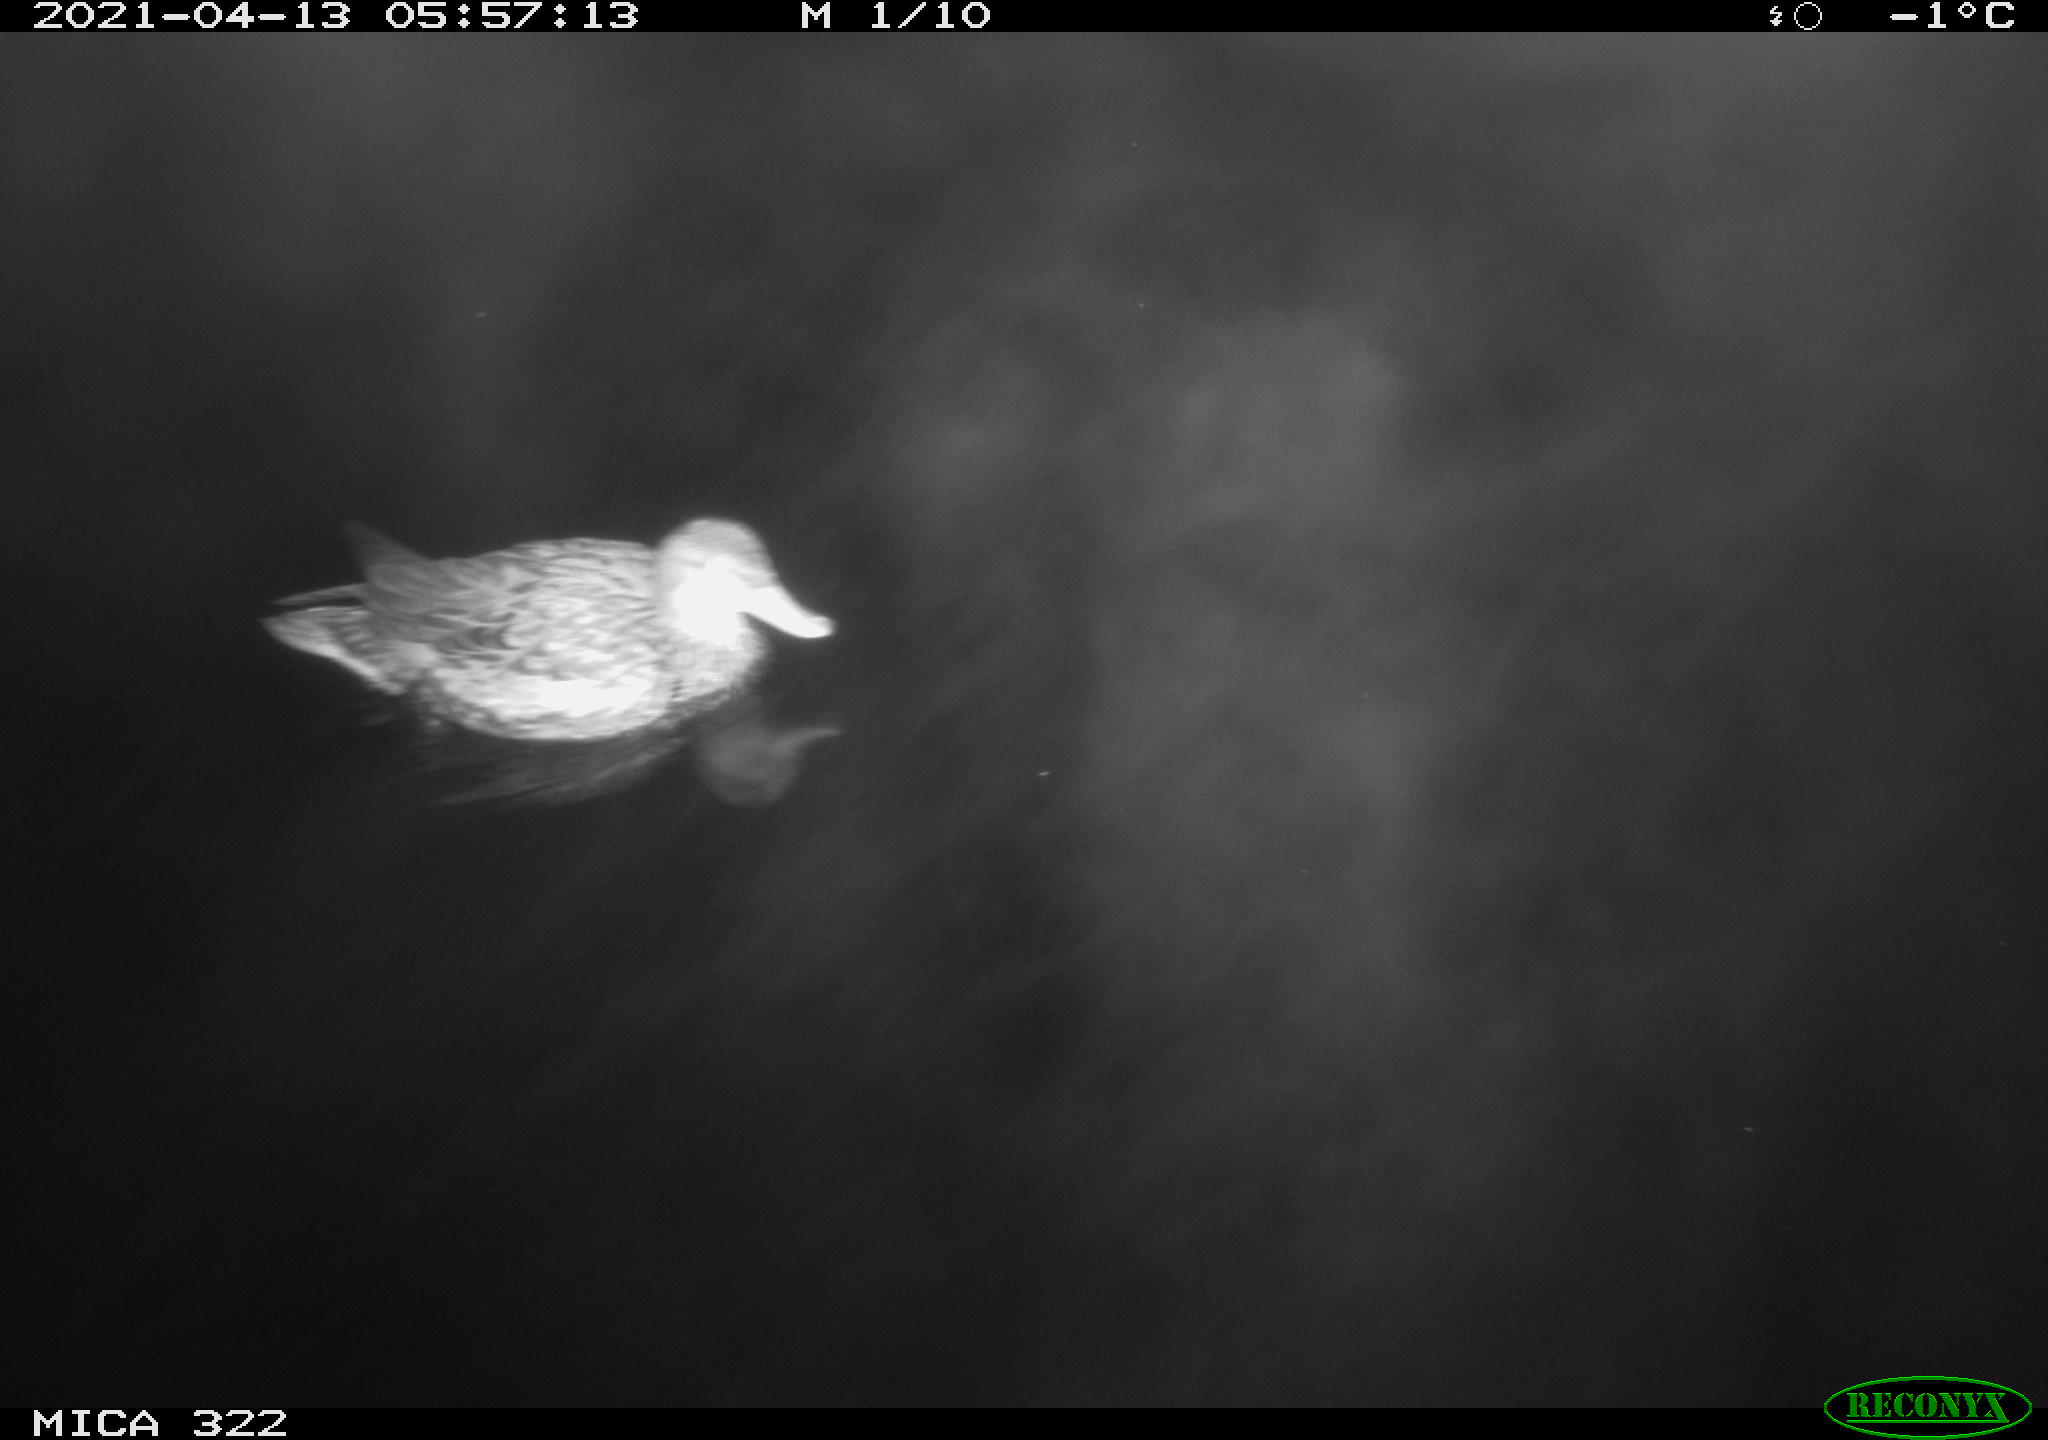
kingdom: Animalia
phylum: Chordata
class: Aves
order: Anseriformes
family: Anatidae
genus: Mareca
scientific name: Mareca strepera
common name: Gadwall
